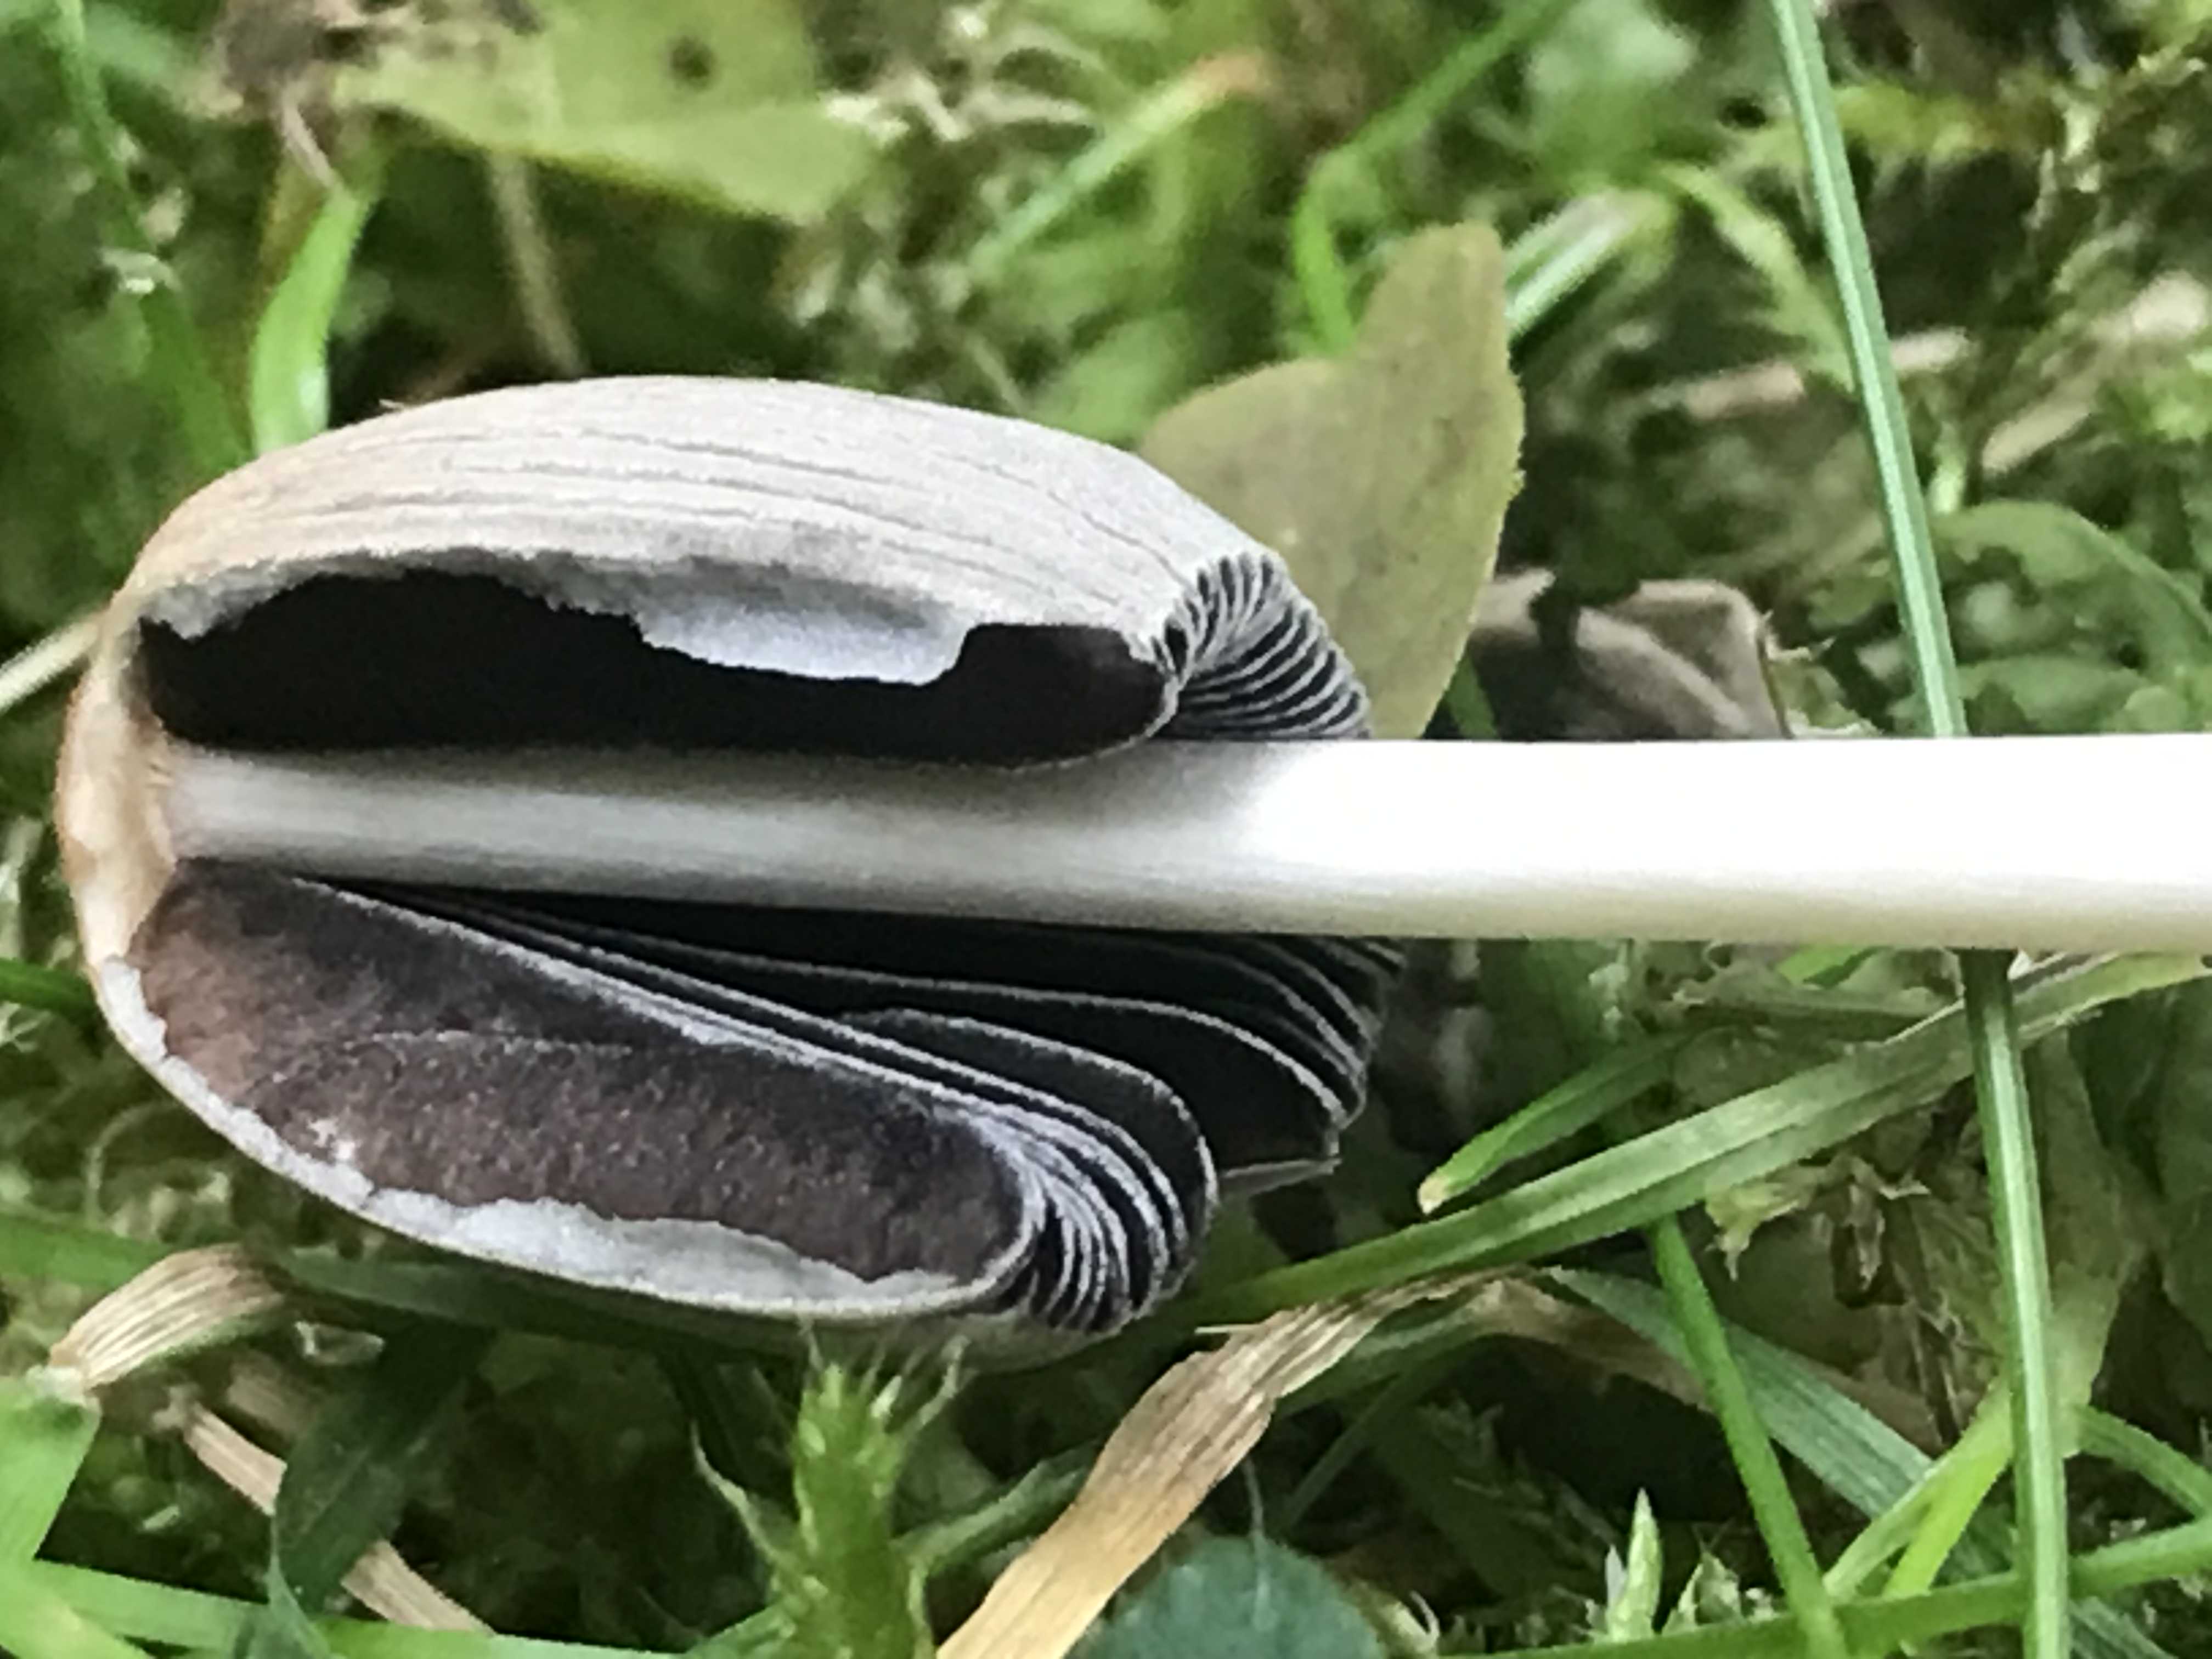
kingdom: Fungi
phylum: Basidiomycota
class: Agaricomycetes
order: Agaricales
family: Psathyrellaceae
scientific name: Psathyrellaceae
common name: mørkhatfamilien
